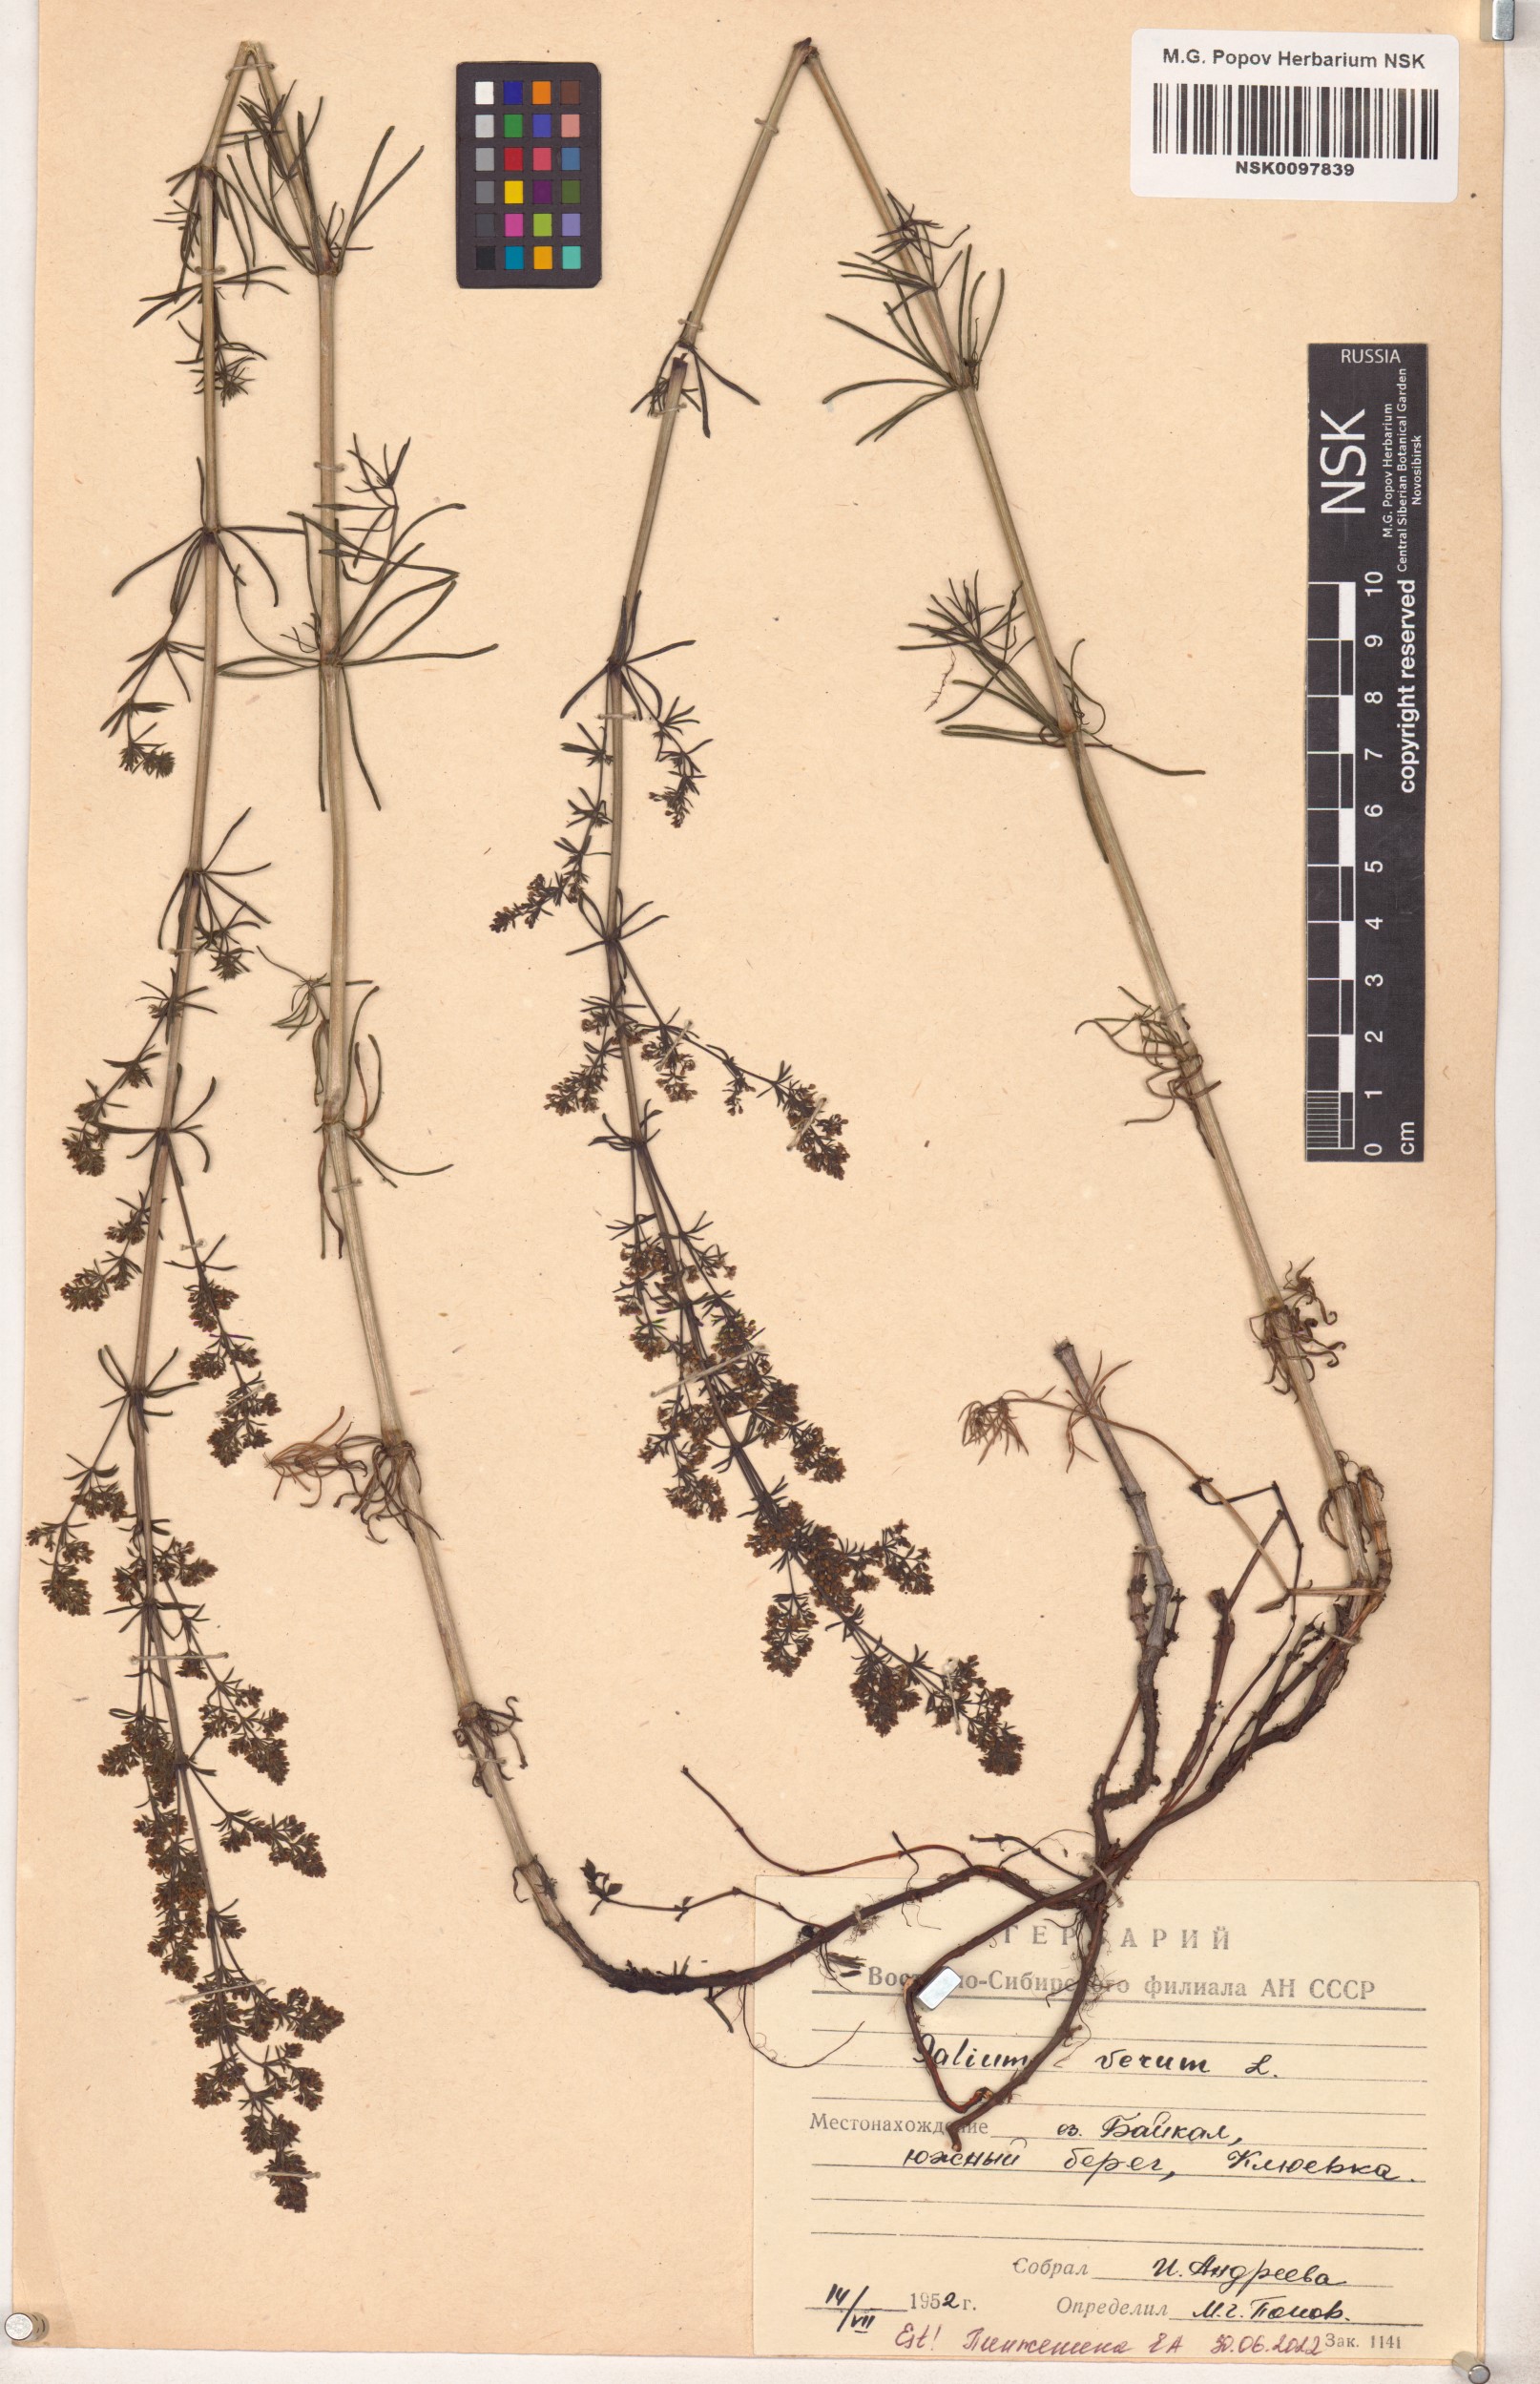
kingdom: Plantae
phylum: Tracheophyta
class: Magnoliopsida
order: Gentianales
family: Rubiaceae
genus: Galium
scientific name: Galium verum
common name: Lady's bedstraw
